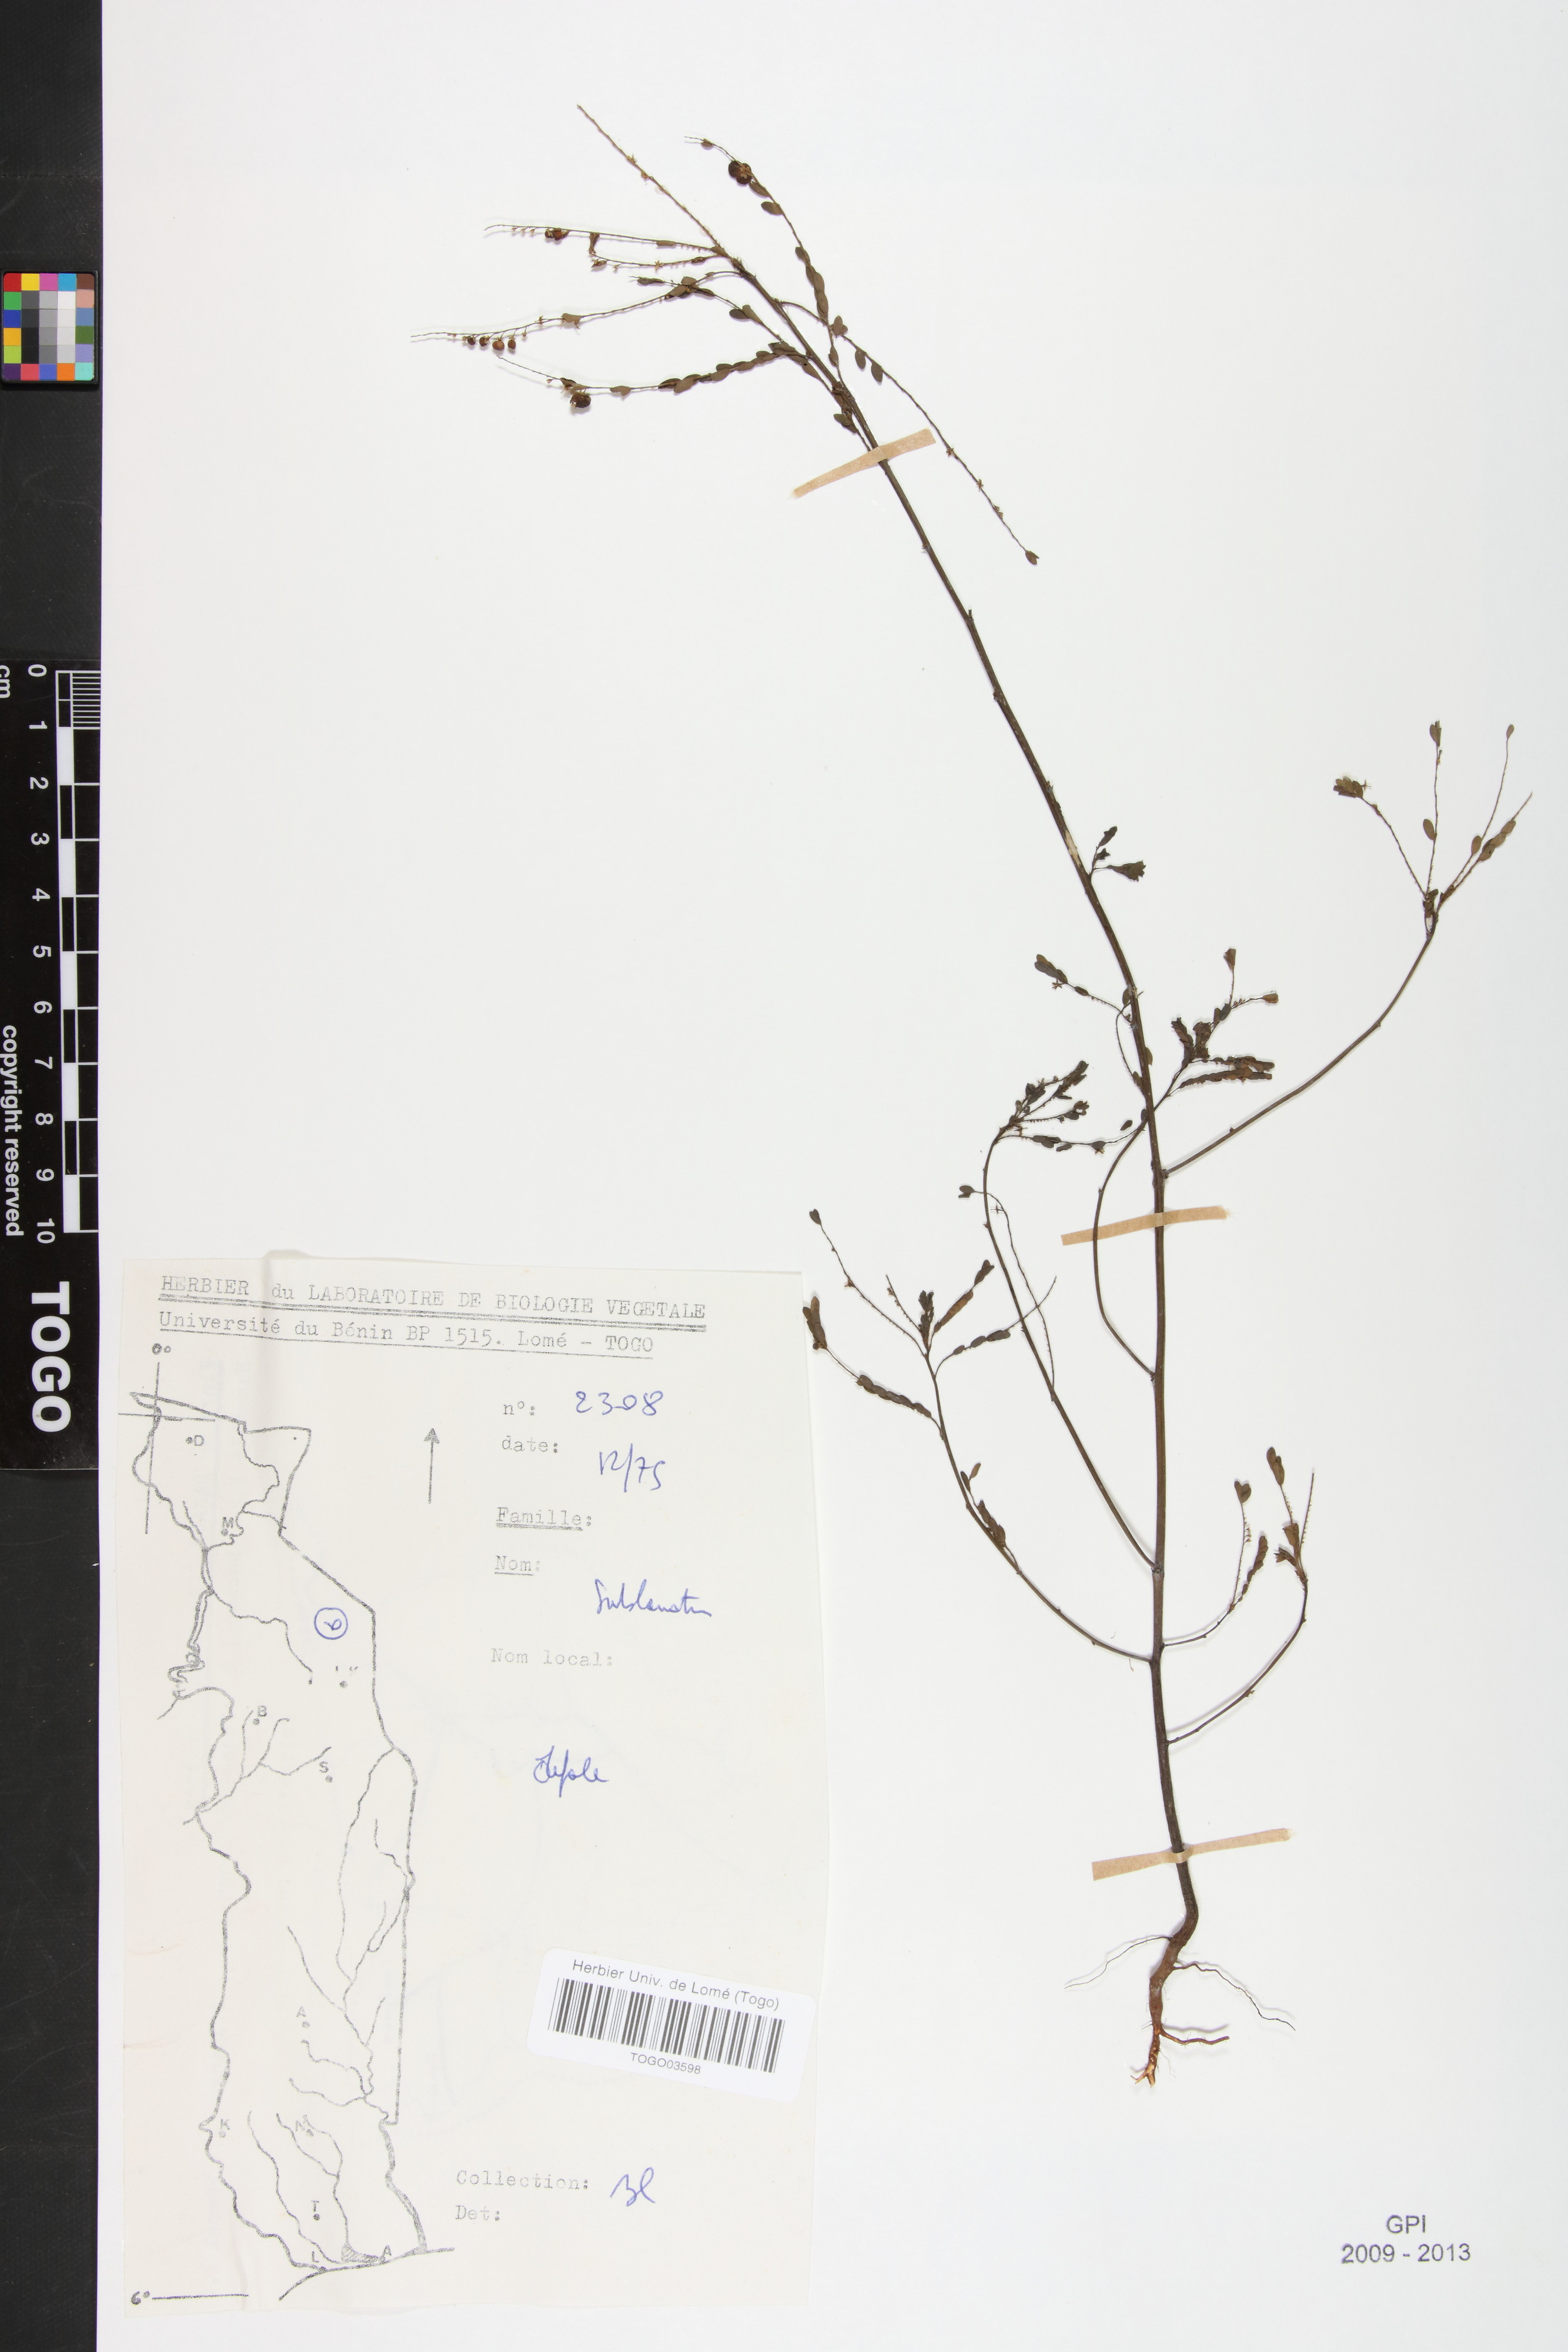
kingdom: Plantae
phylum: Tracheophyta
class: Magnoliopsida
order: Malpighiales
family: Phyllanthaceae
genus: Phyllanthus
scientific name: Phyllanthus sublanatus
